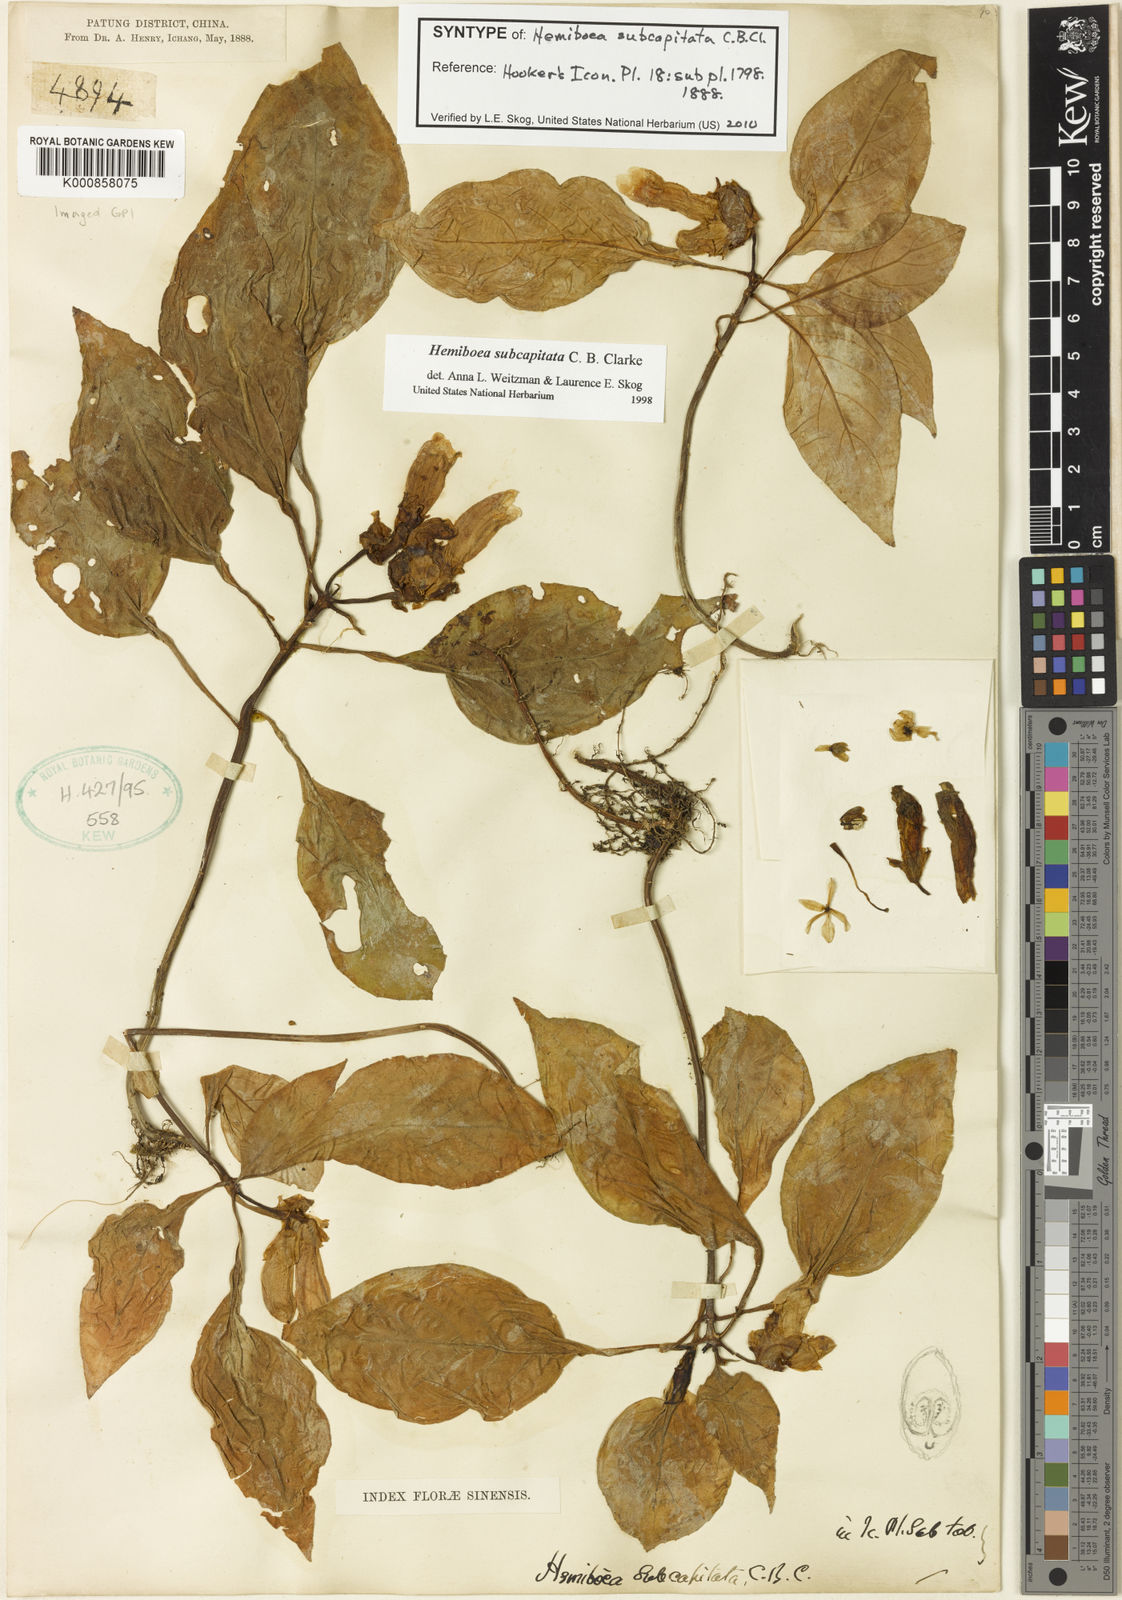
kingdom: Plantae
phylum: Tracheophyta
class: Magnoliopsida
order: Lamiales
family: Gesneriaceae
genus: Hemiboea
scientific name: Hemiboea subcapitata
